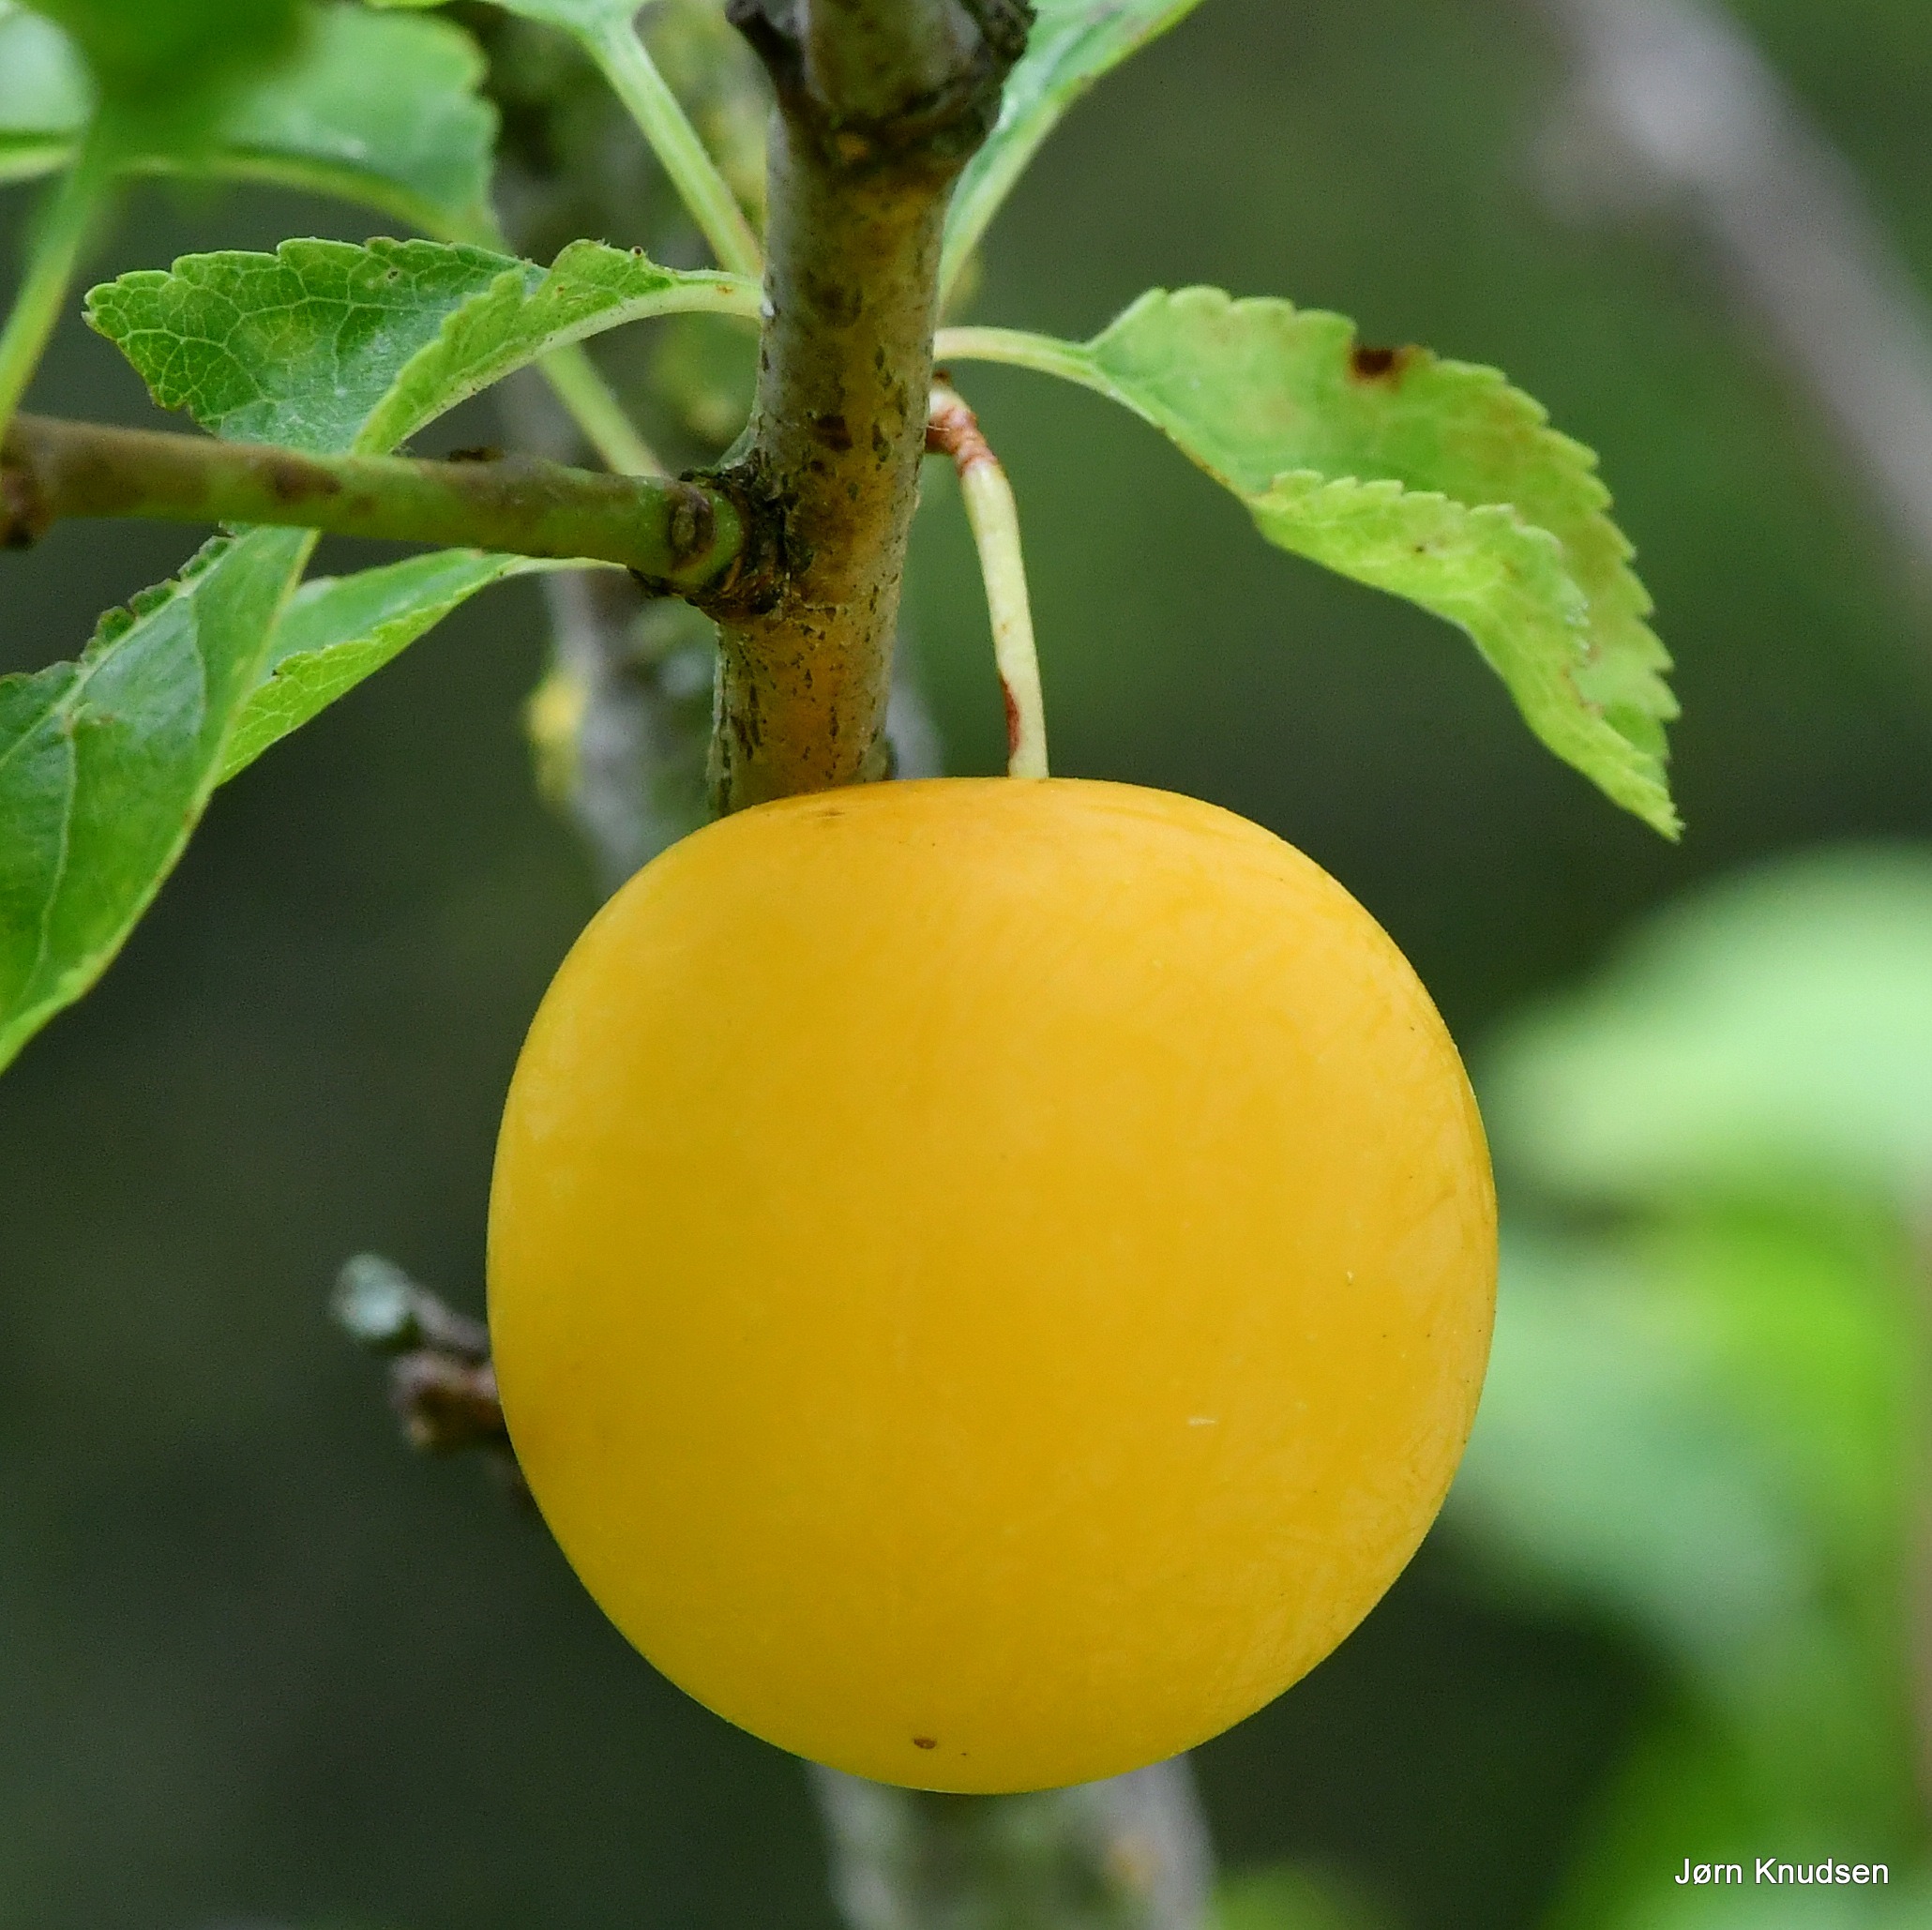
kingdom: Plantae
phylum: Tracheophyta
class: Magnoliopsida
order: Rosales
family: Rosaceae
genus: Prunus
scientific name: Prunus cerasifera
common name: Mirabel
